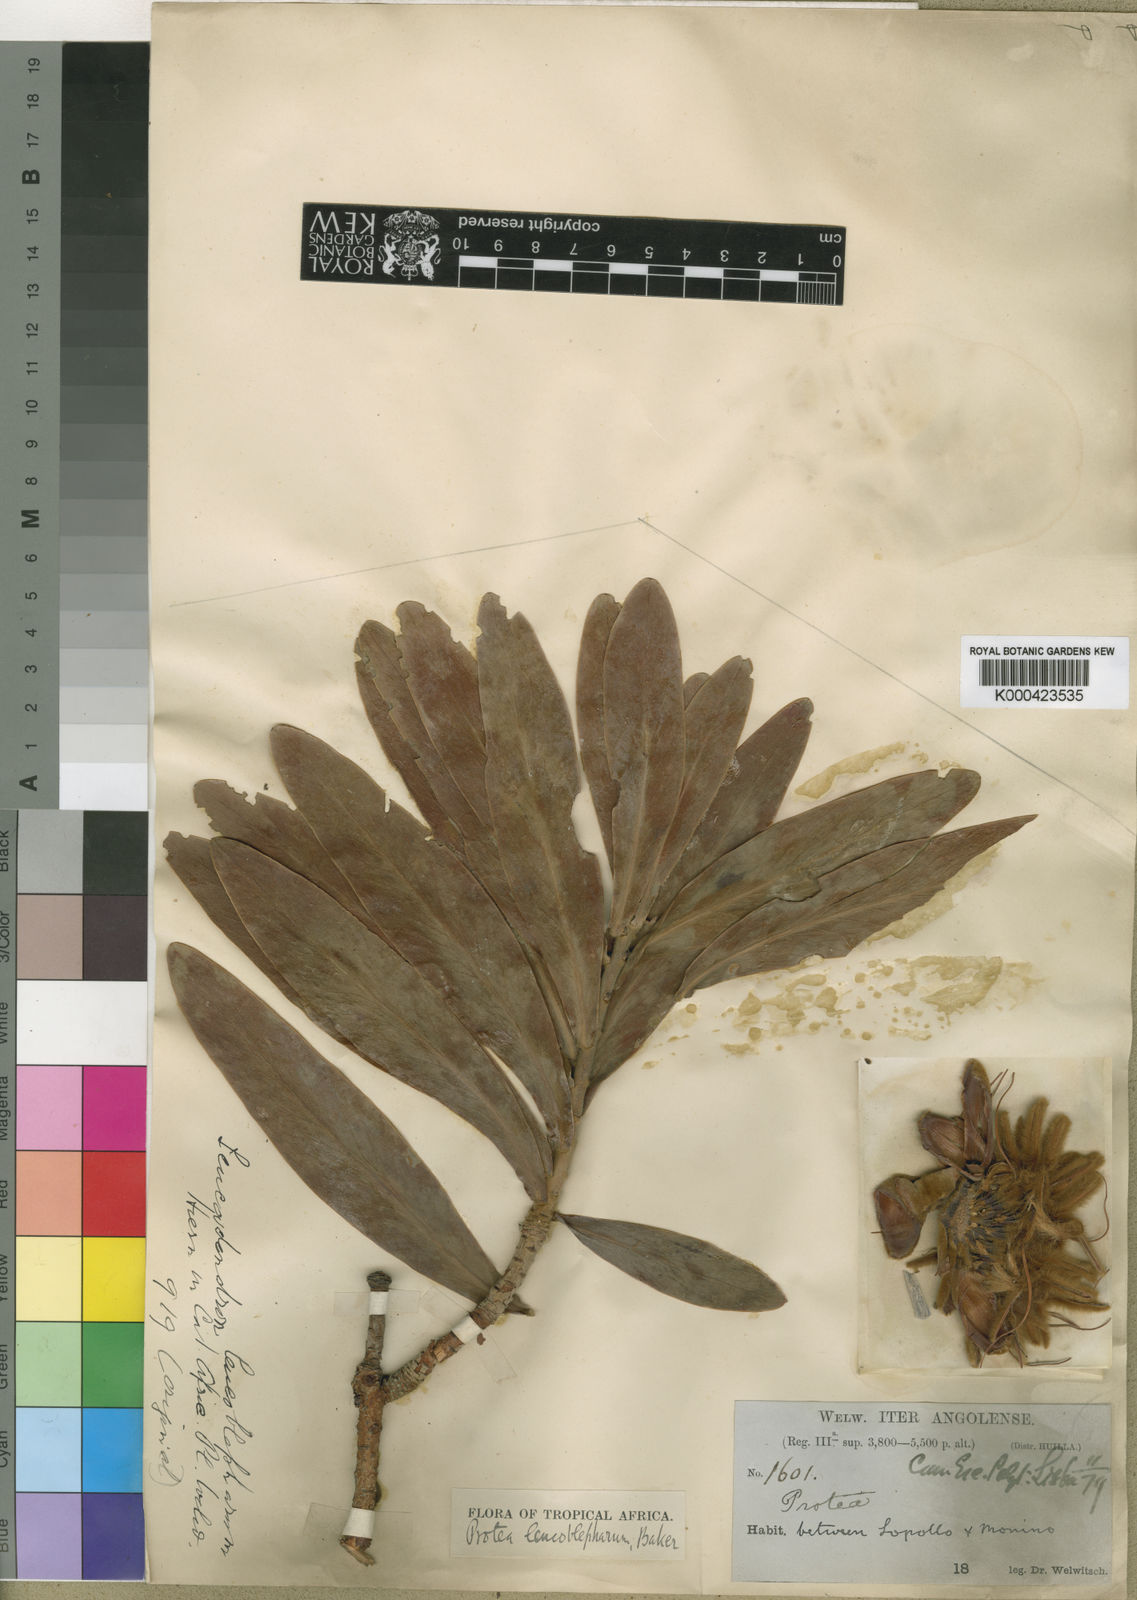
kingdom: Plantae
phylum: Tracheophyta
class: Magnoliopsida
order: Proteales
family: Proteaceae
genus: Protea
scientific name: Protea welwitschii
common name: Cluster-head protea
